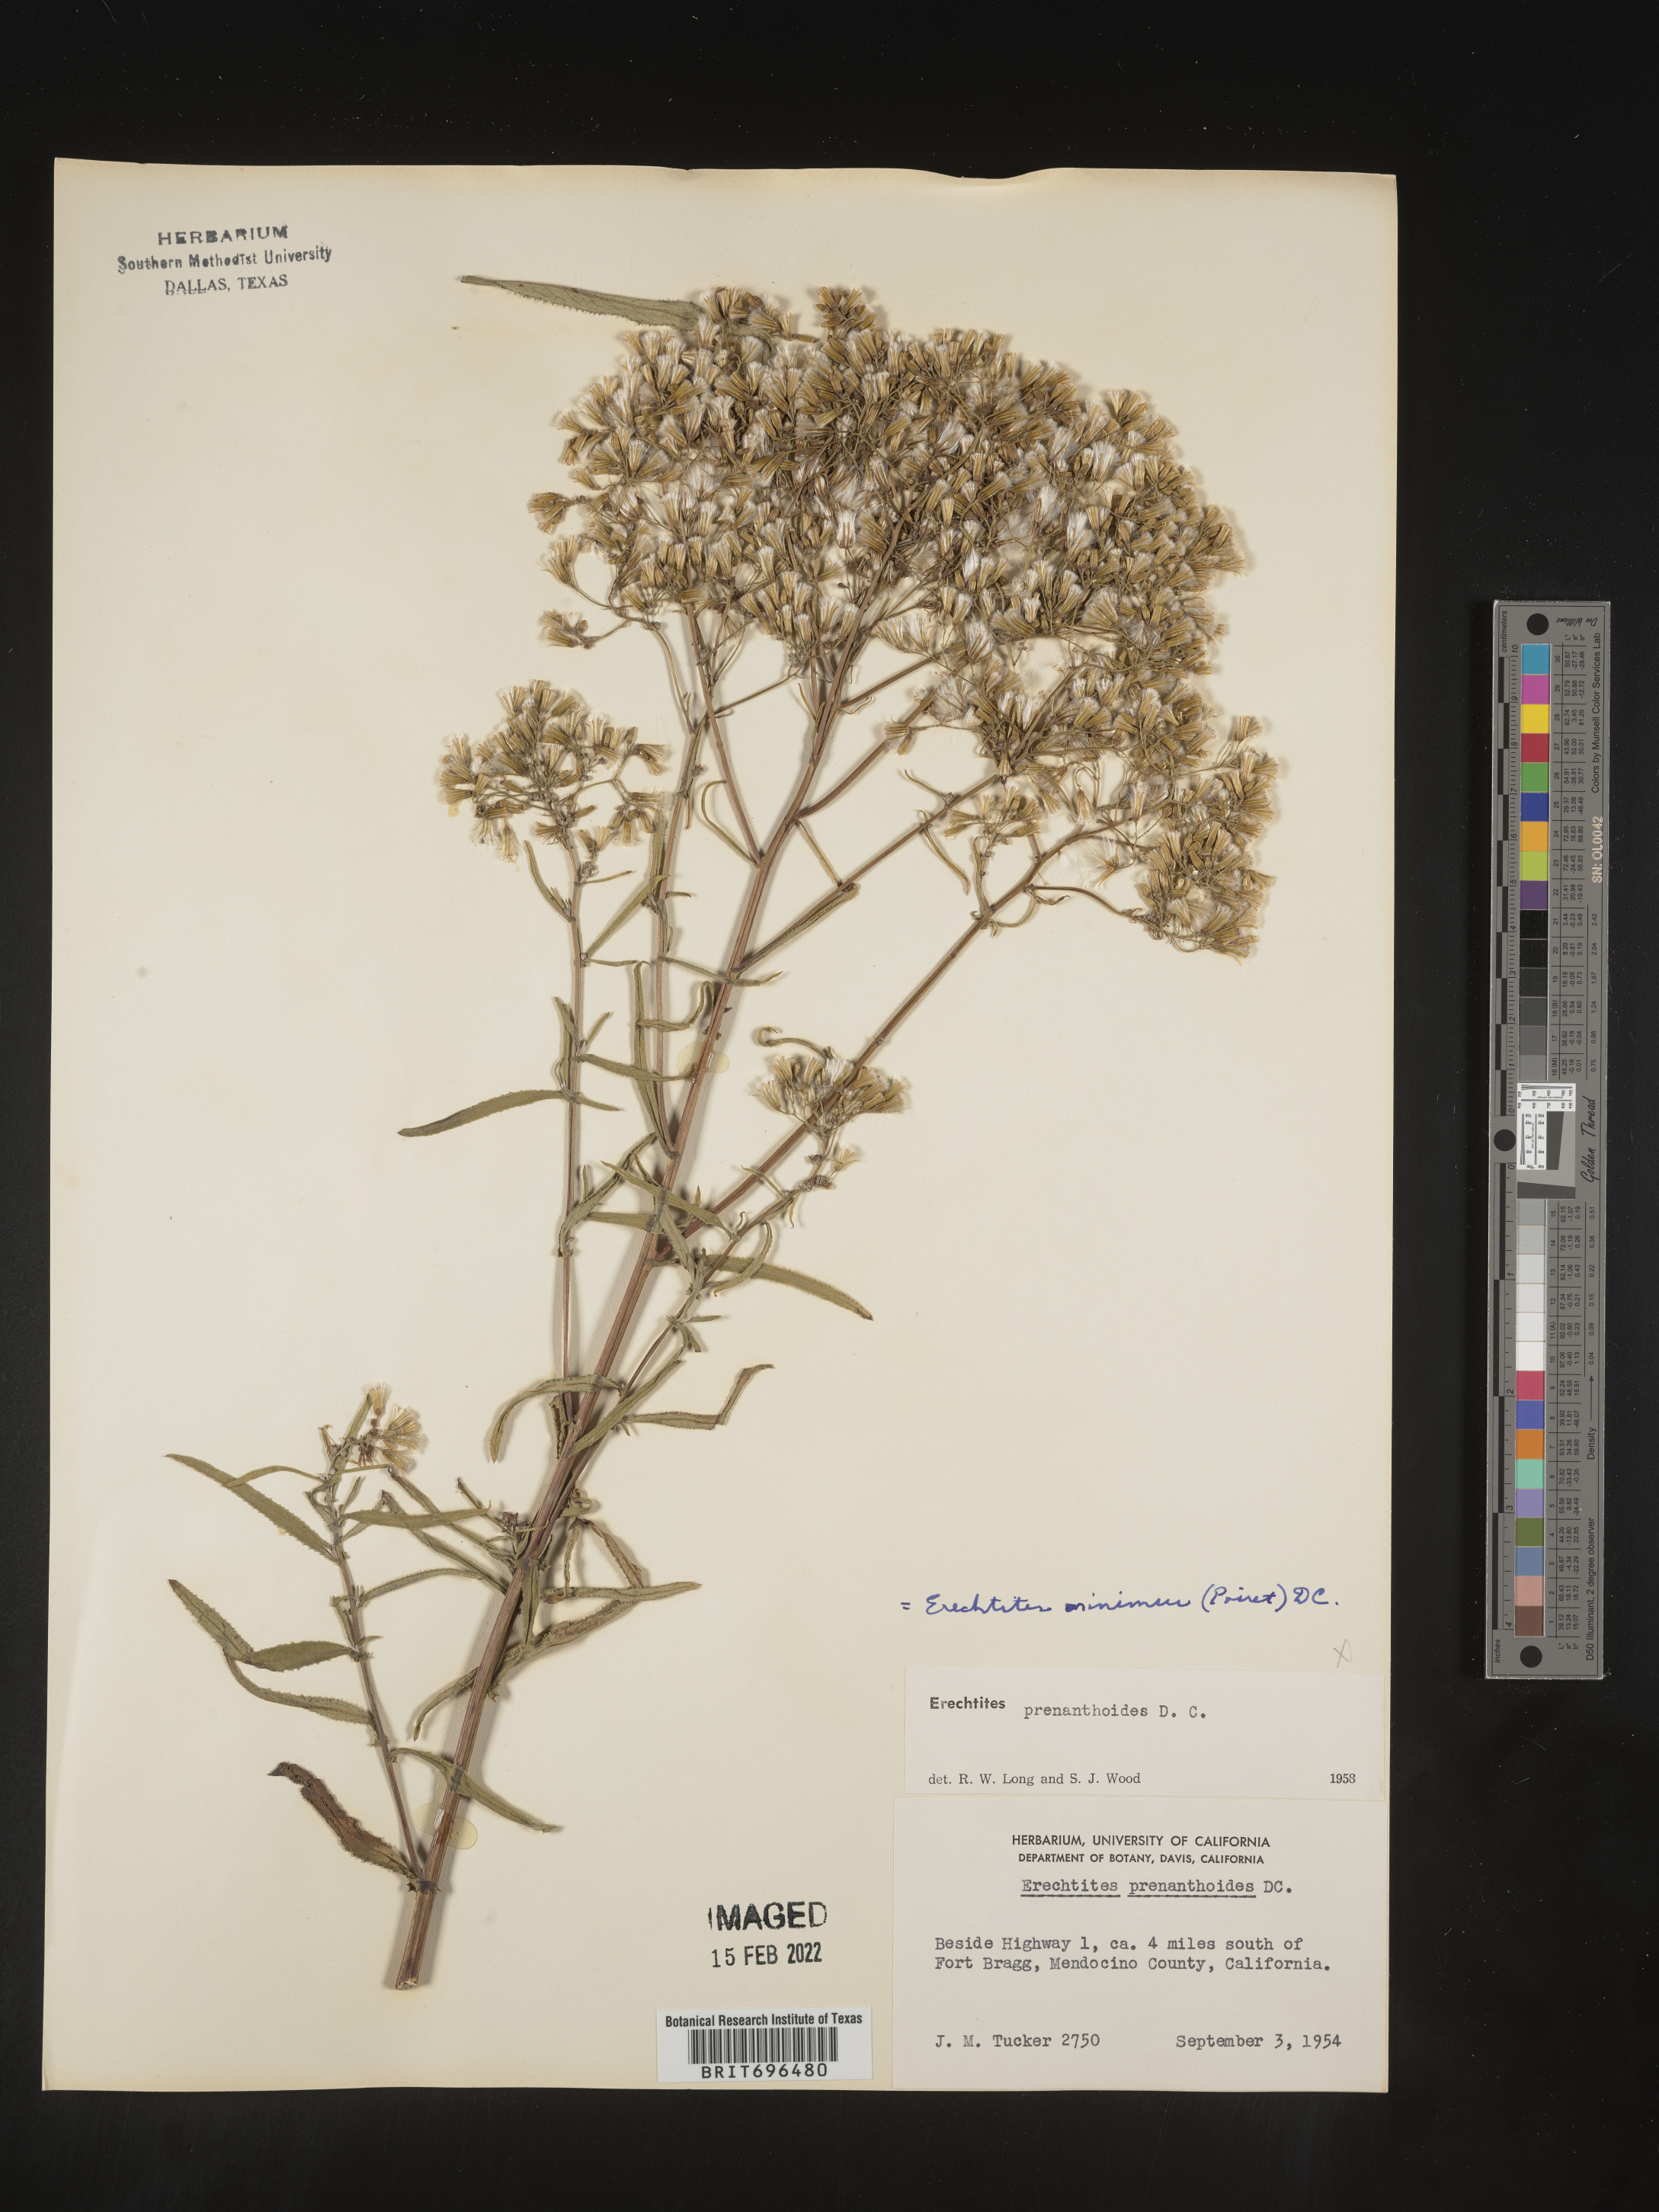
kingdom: Plantae
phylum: Tracheophyta
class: Magnoliopsida
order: Asterales
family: Asteraceae
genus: Senecio
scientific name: Senecio minimus
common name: Toothed fireweed
